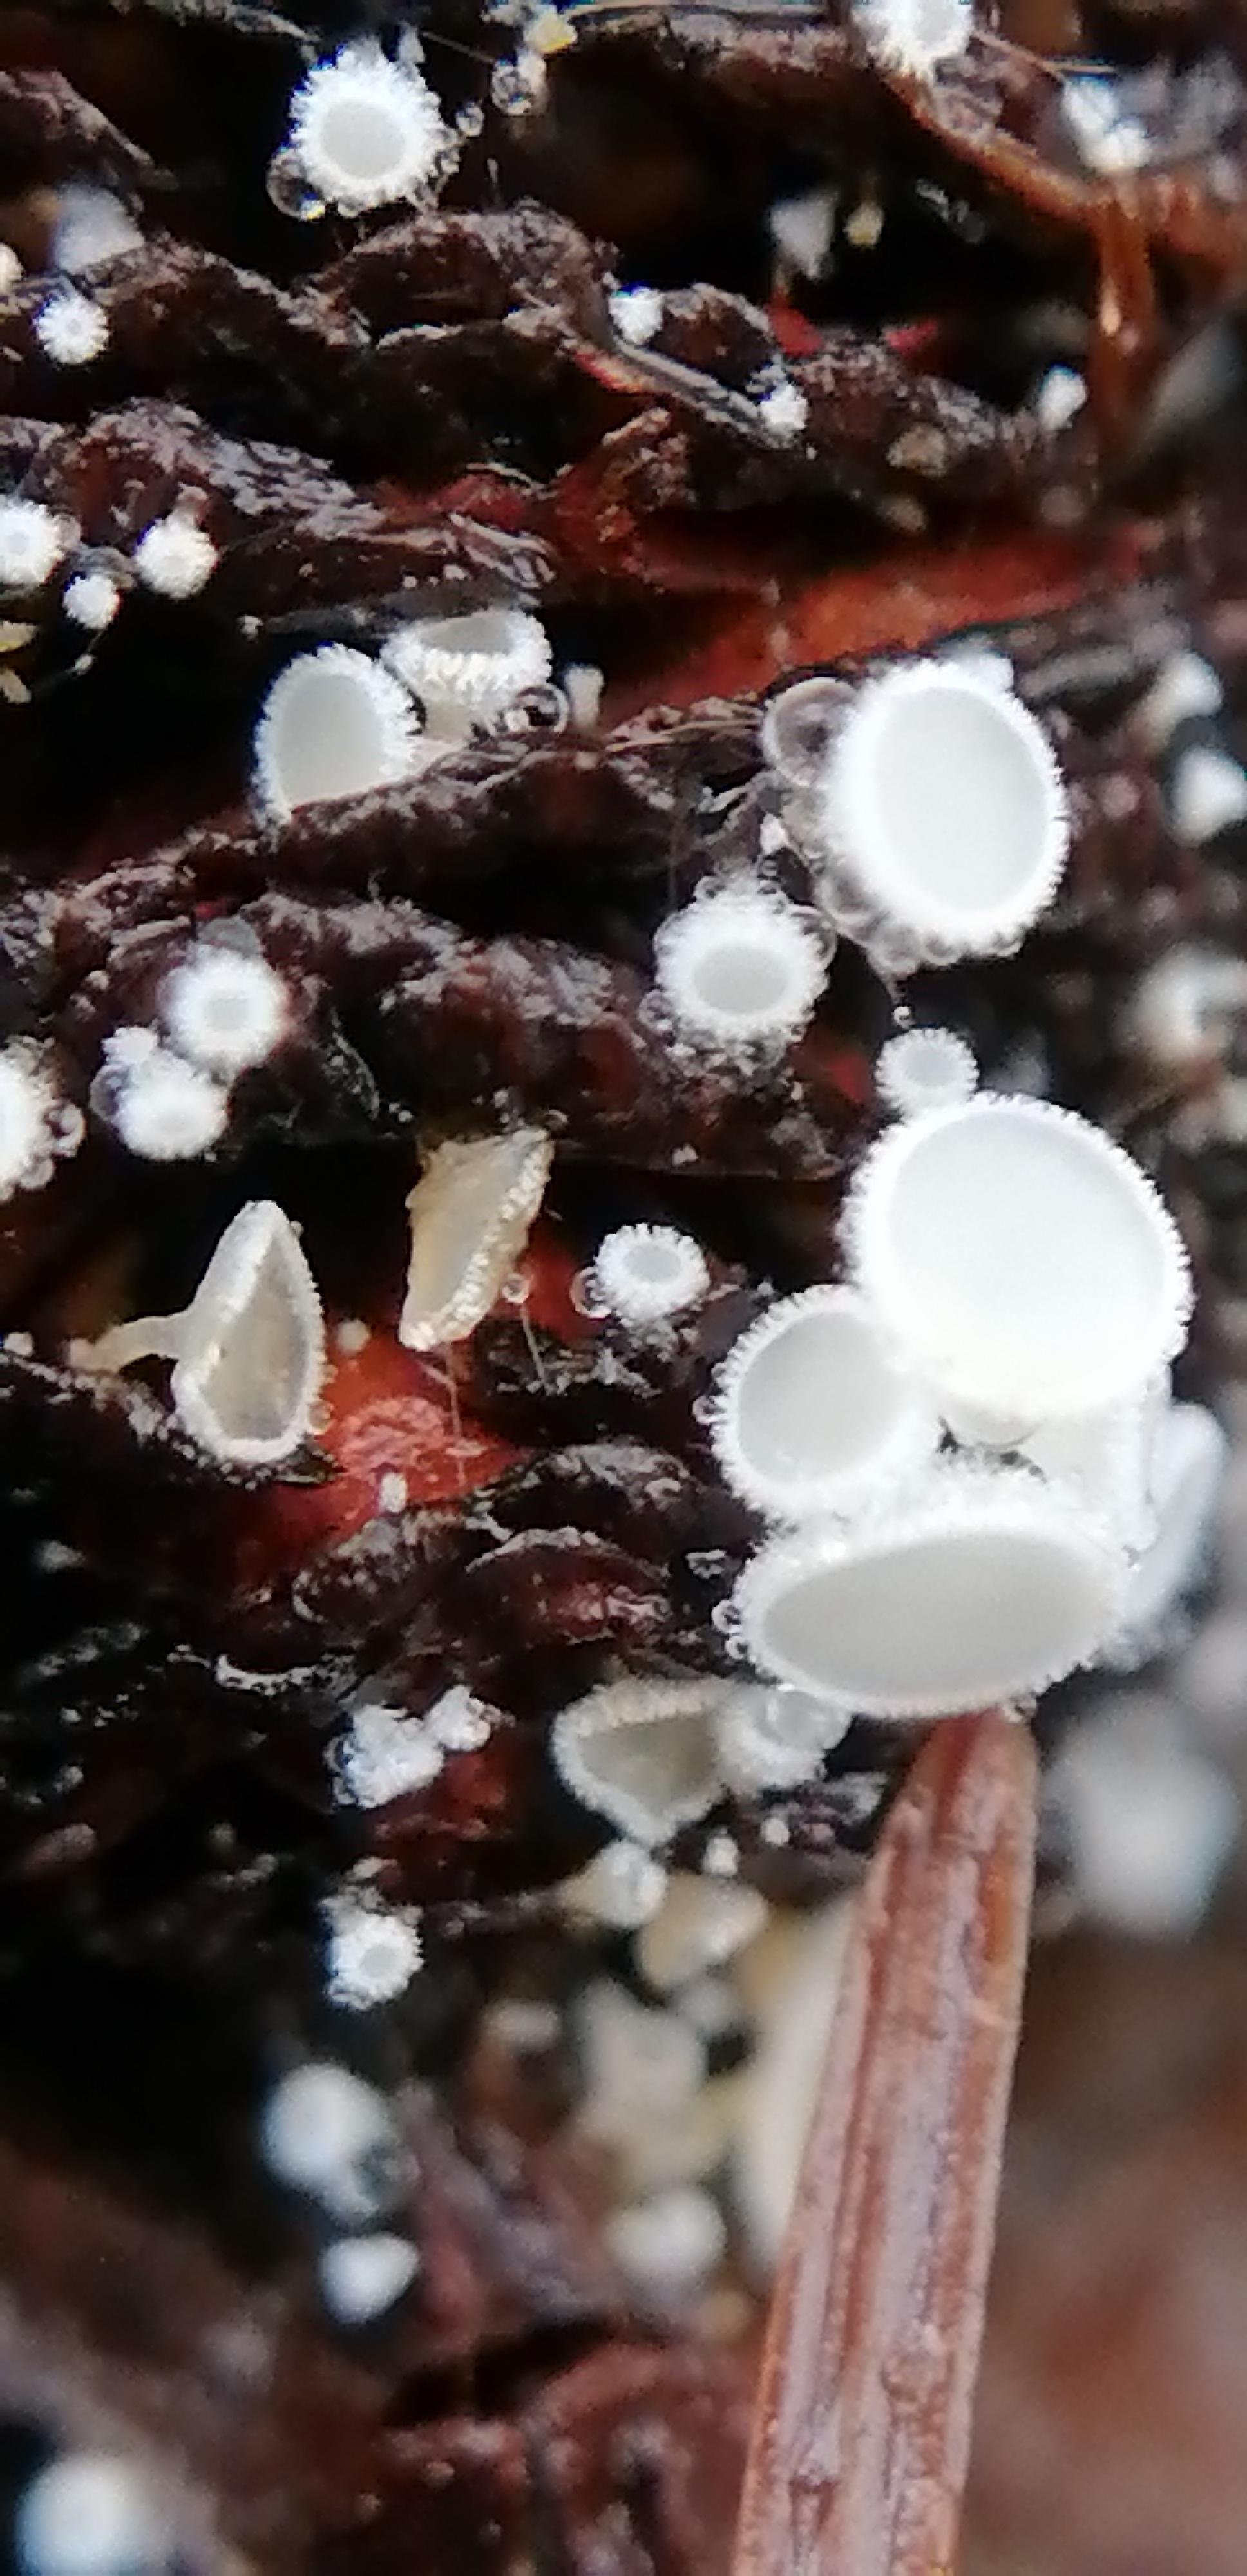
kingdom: Fungi
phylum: Ascomycota
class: Leotiomycetes
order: Helotiales
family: Pezizellaceae
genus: Calycina
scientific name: Calycina alniella
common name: ellekogle-stilkskive
